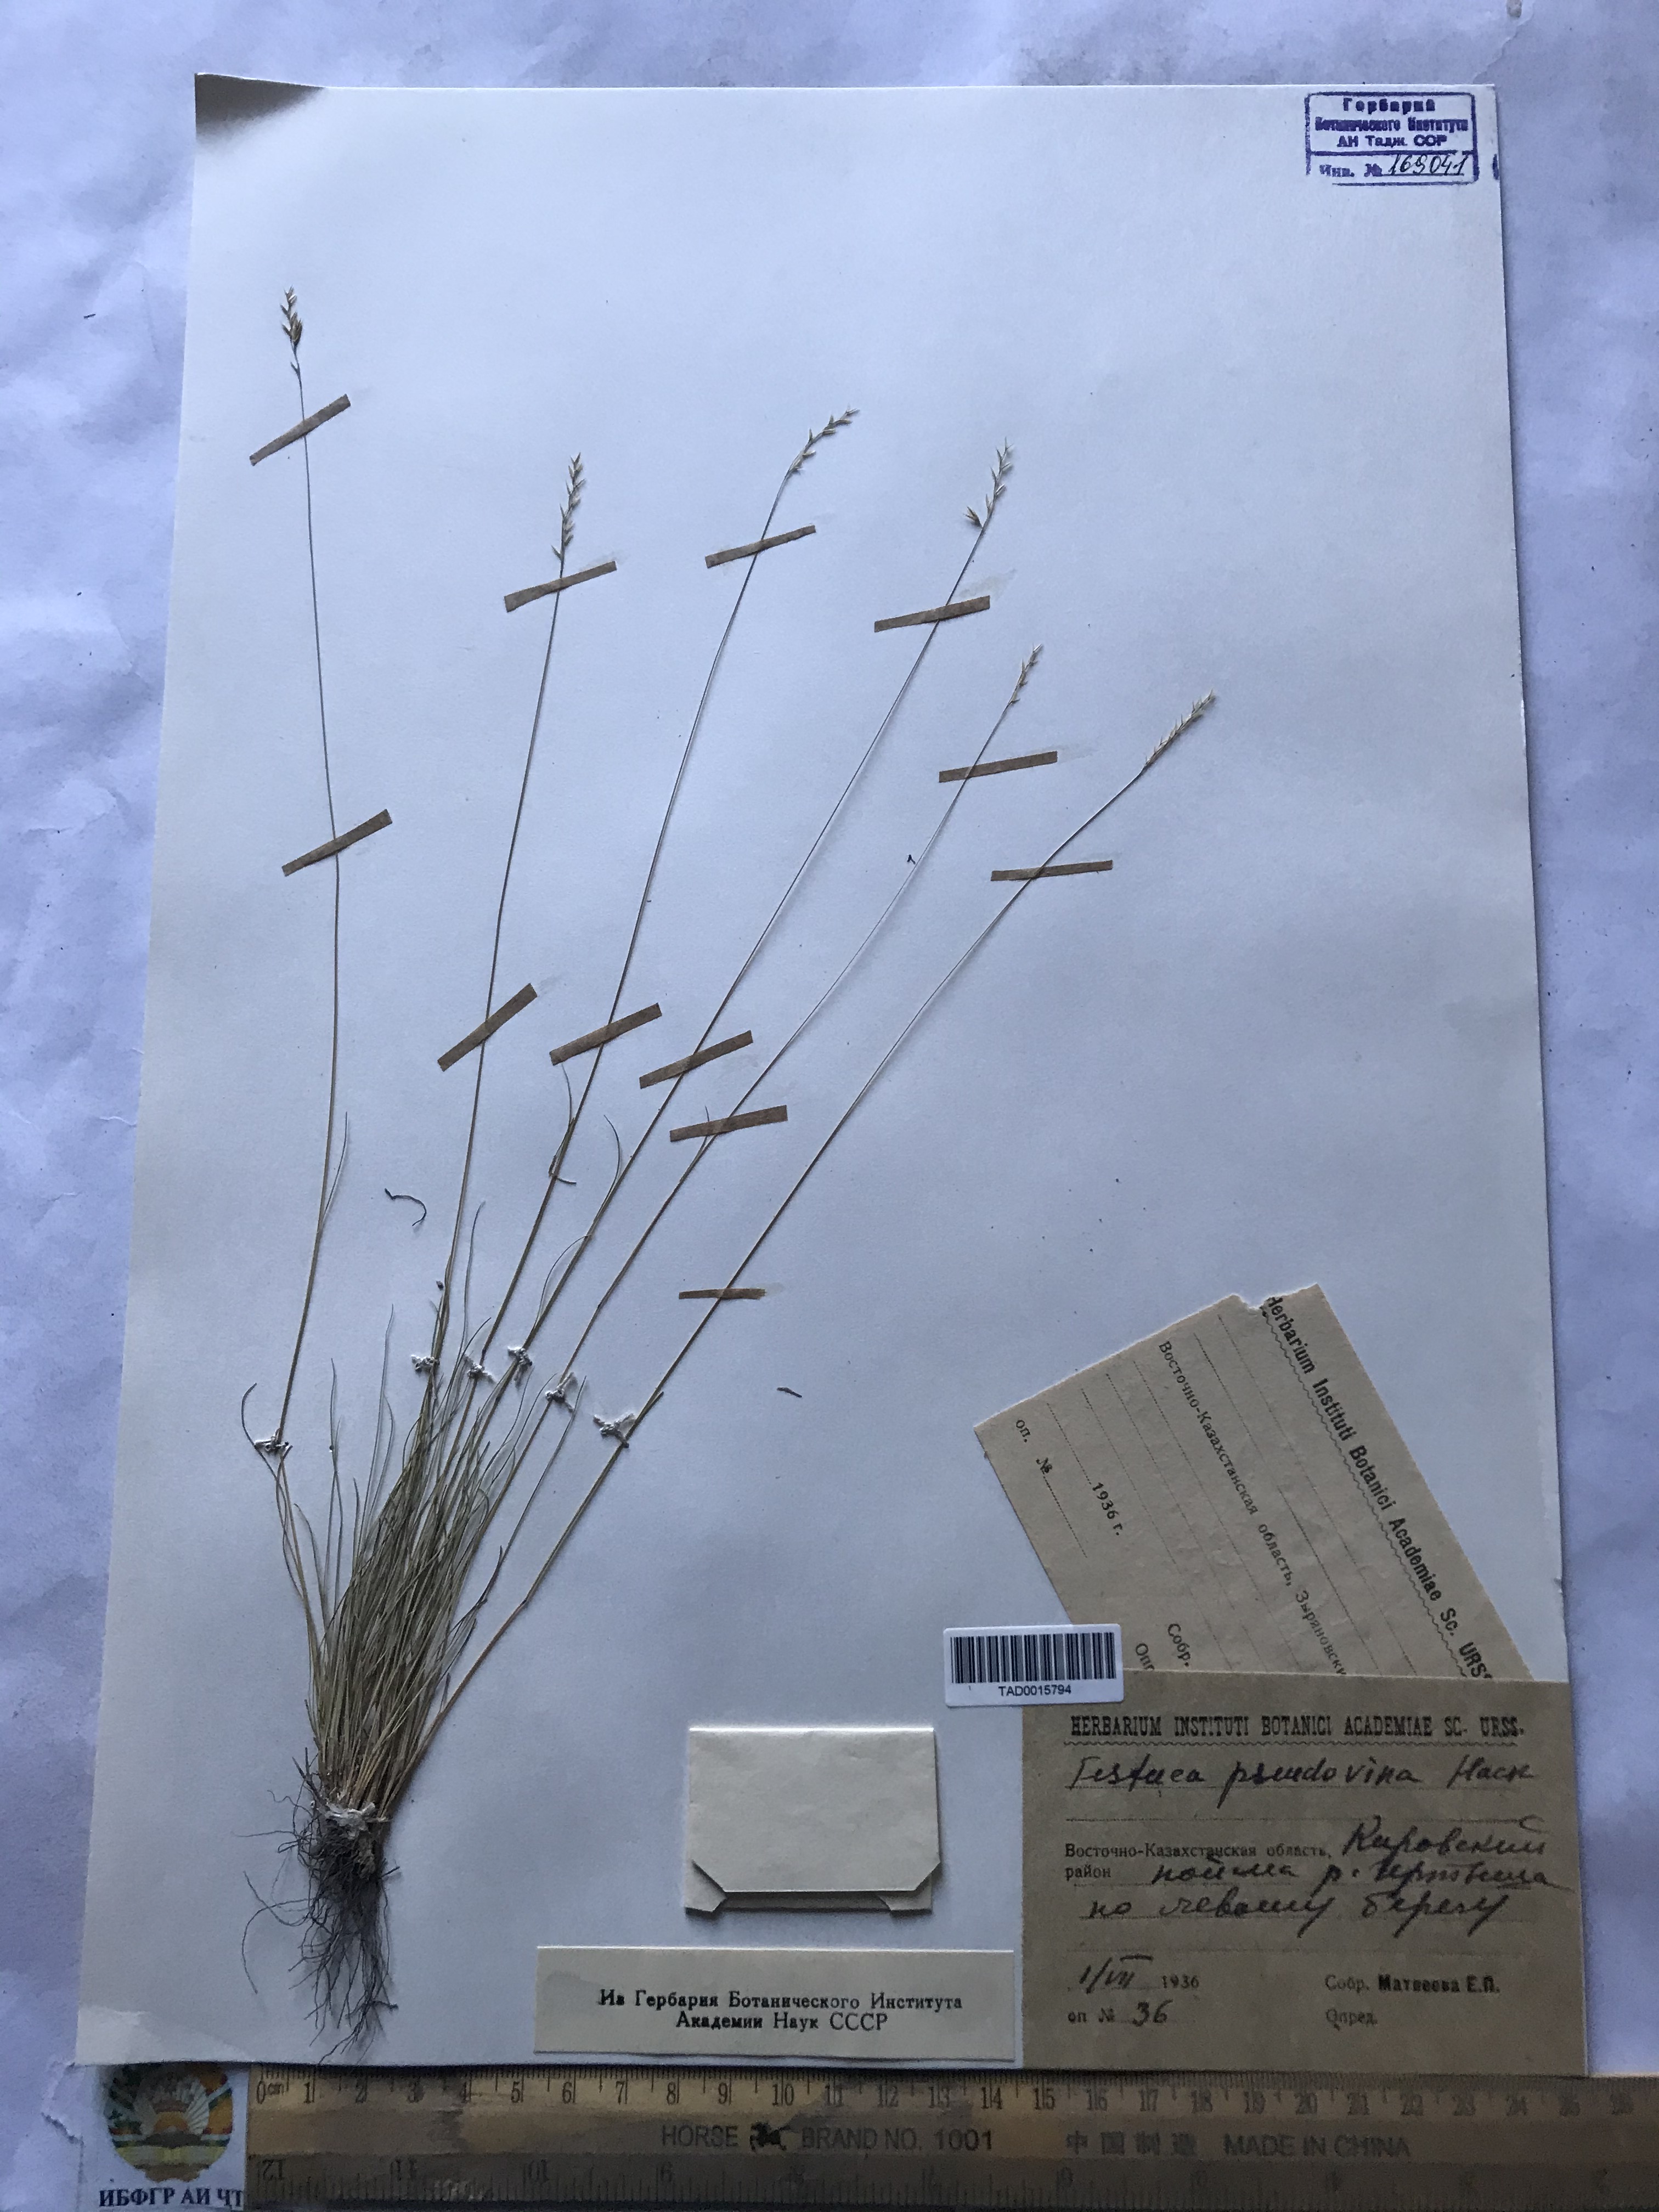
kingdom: Plantae
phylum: Tracheophyta
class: Liliopsida
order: Poales
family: Poaceae
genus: Festuca
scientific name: Festuca pulchra
